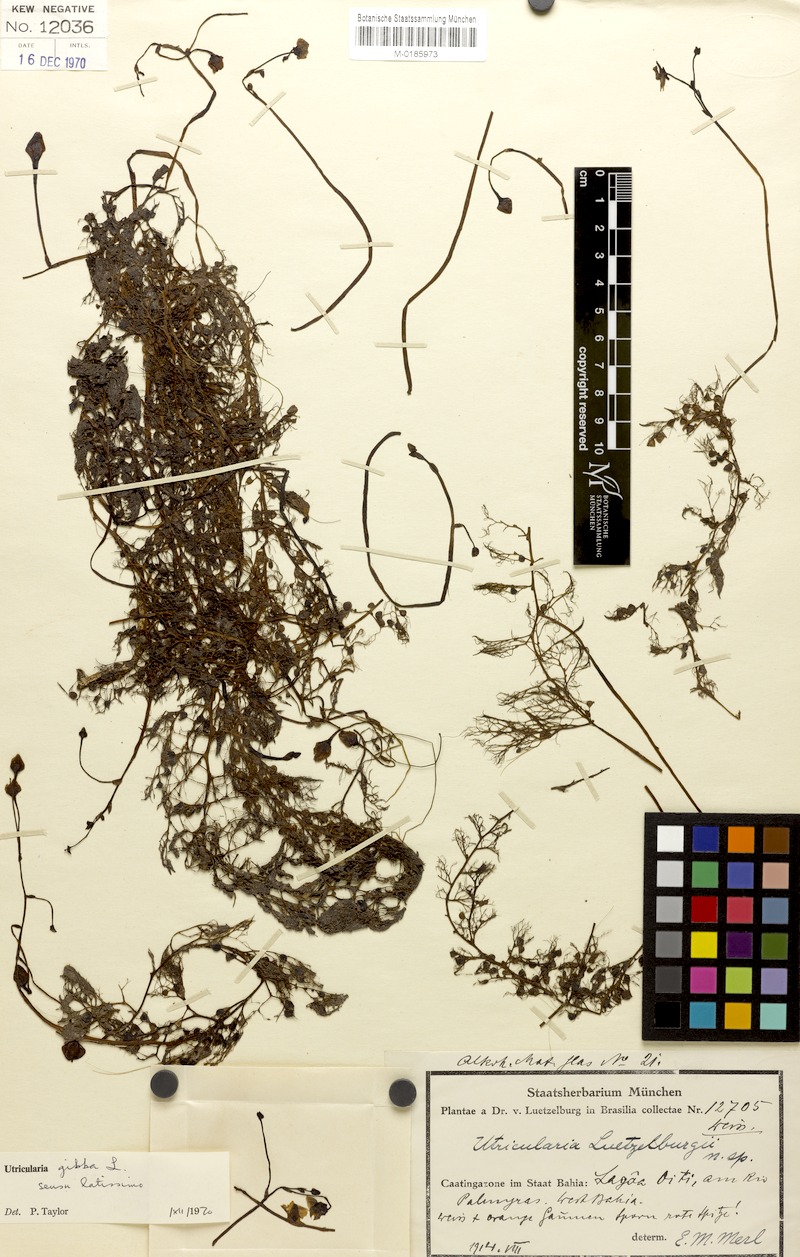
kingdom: Plantae
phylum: Tracheophyta
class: Magnoliopsida
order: Lamiales
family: Lentibulariaceae
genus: Utricularia
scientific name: Utricularia poconensis
